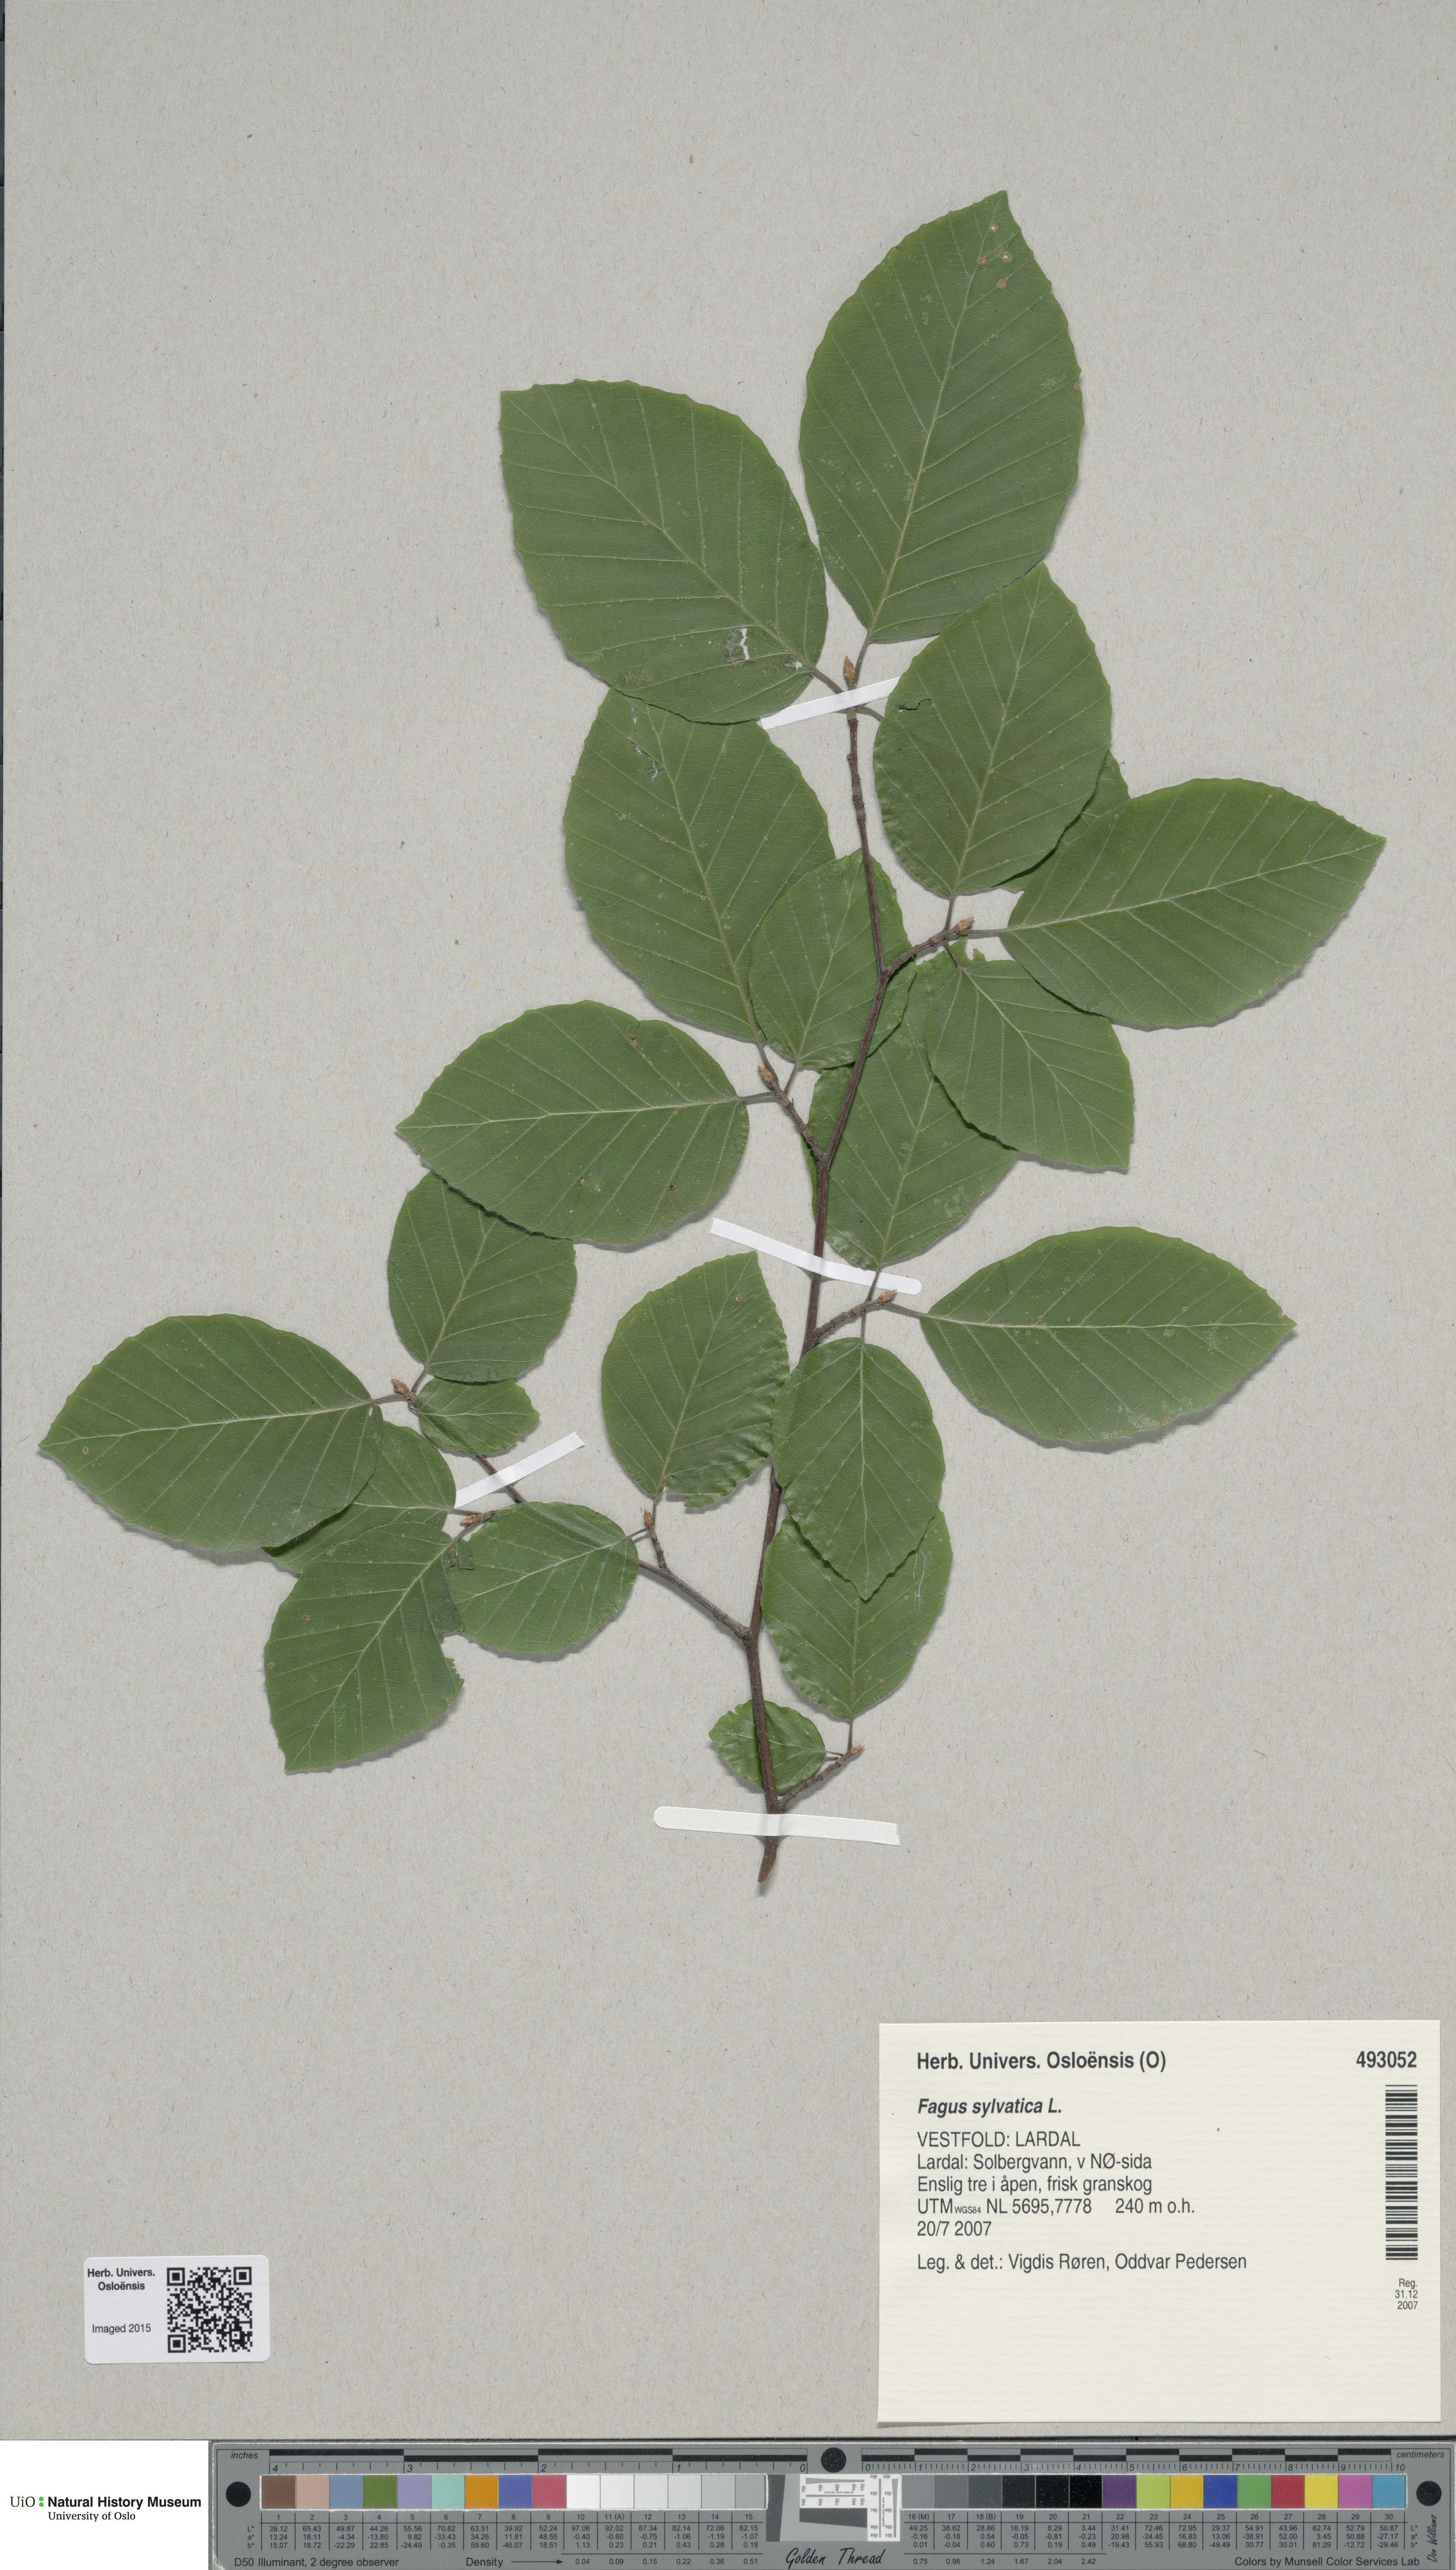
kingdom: Plantae
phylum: Tracheophyta
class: Magnoliopsida
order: Fagales
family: Fagaceae
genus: Fagus
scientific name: Fagus sylvatica
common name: Beech
